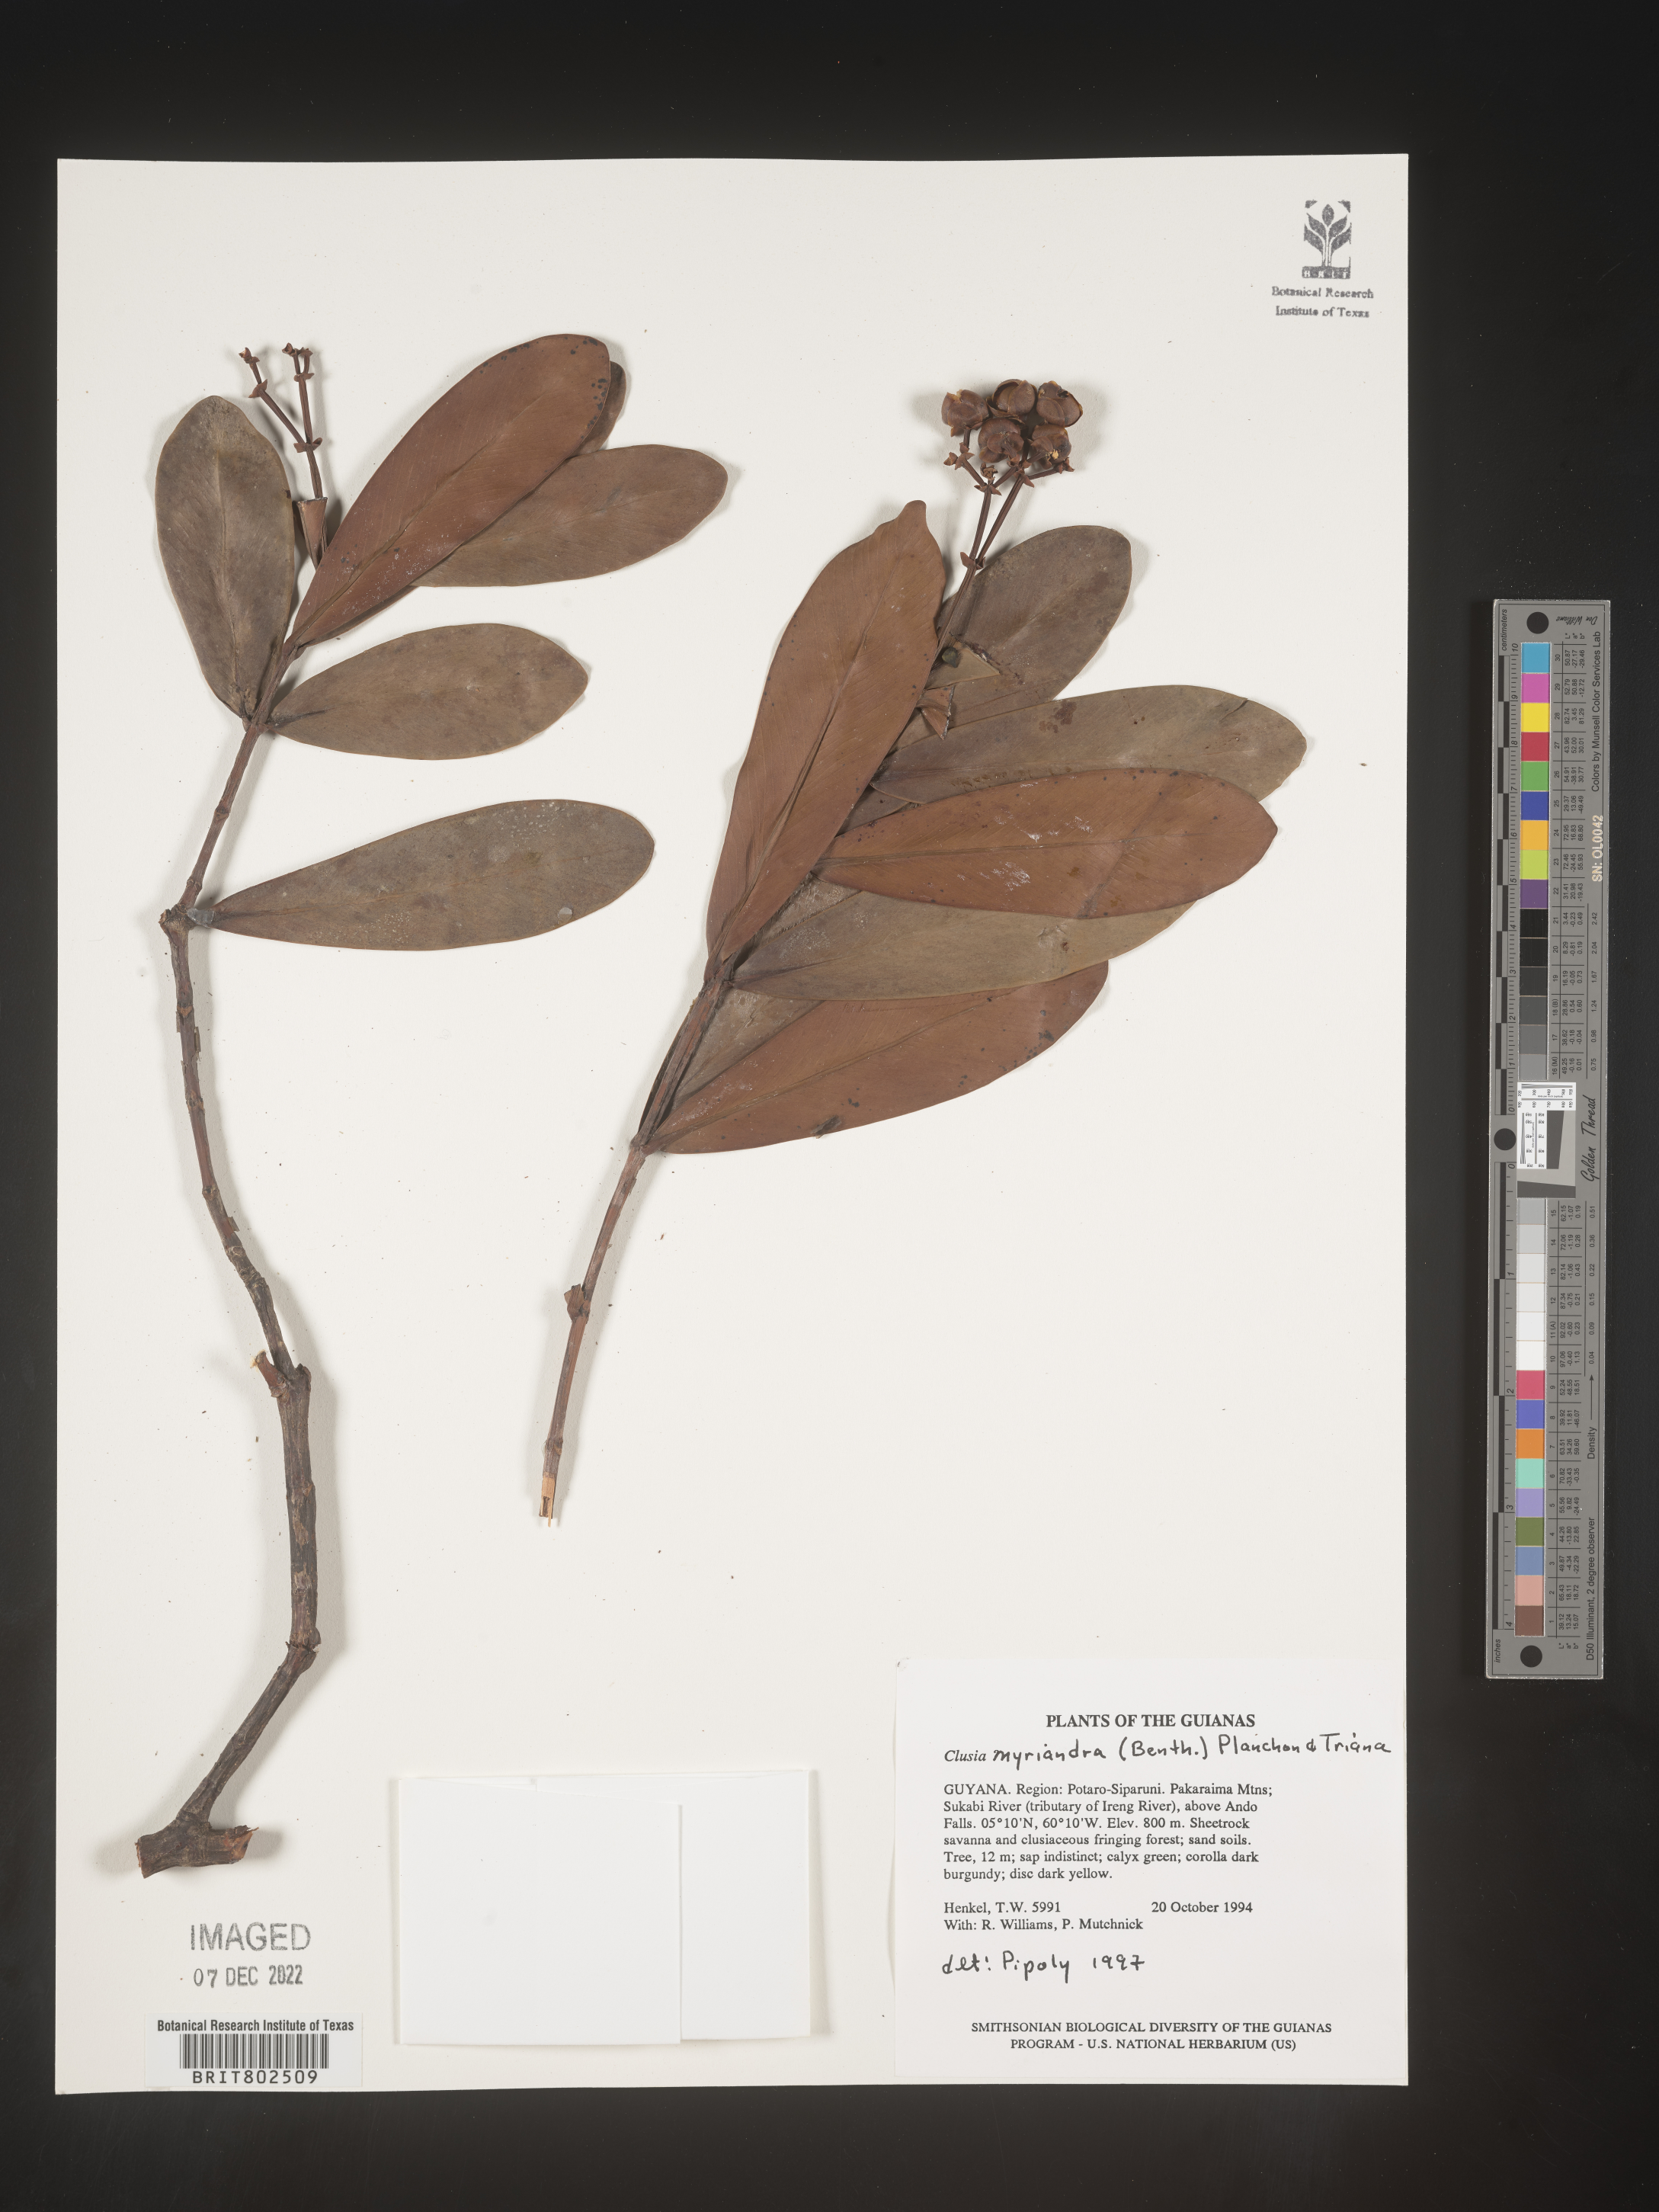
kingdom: Plantae
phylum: Tracheophyta
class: Magnoliopsida
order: Malpighiales
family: Clusiaceae
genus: Clusia
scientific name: Clusia multiflora
